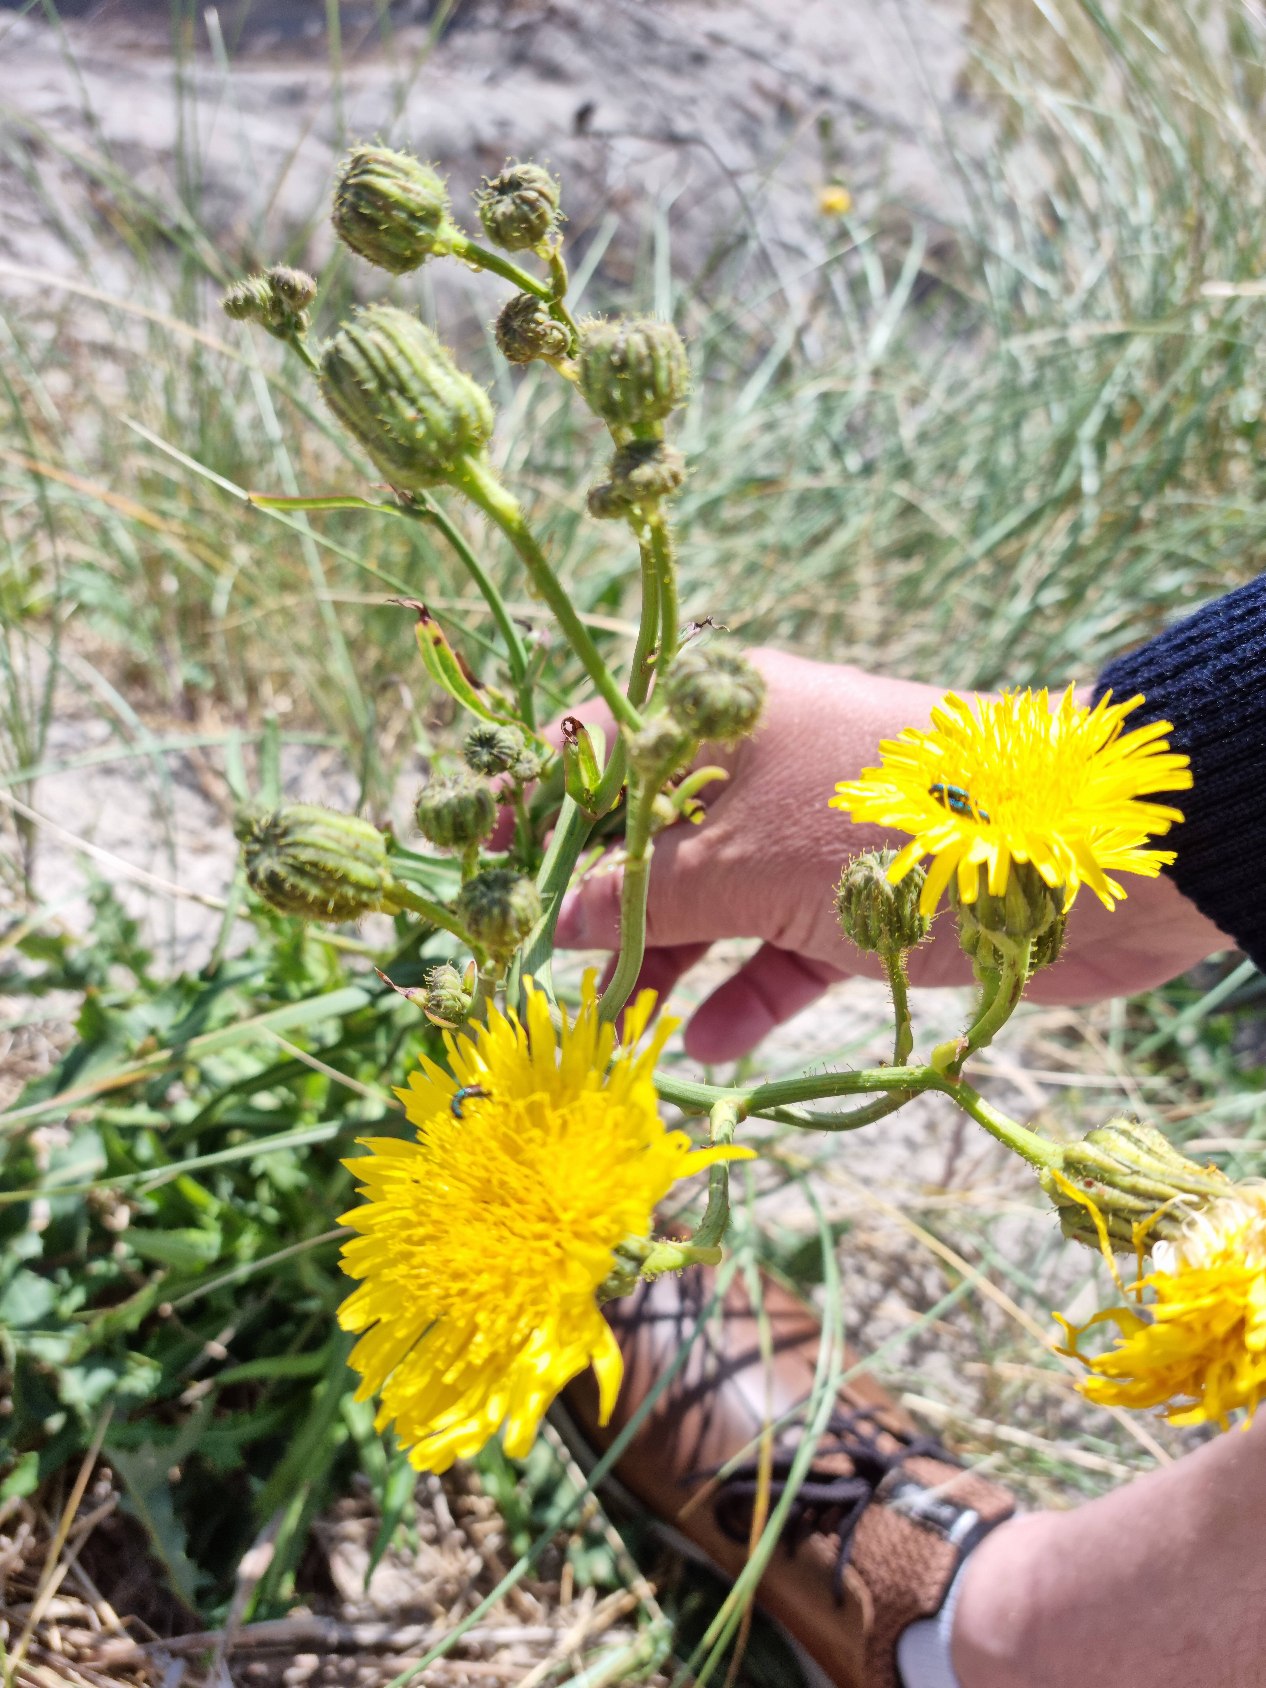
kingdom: Plantae
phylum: Tracheophyta
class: Magnoliopsida
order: Asterales
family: Asteraceae
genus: Sonchus
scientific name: Sonchus arvensis
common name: Ager-svinemælk
